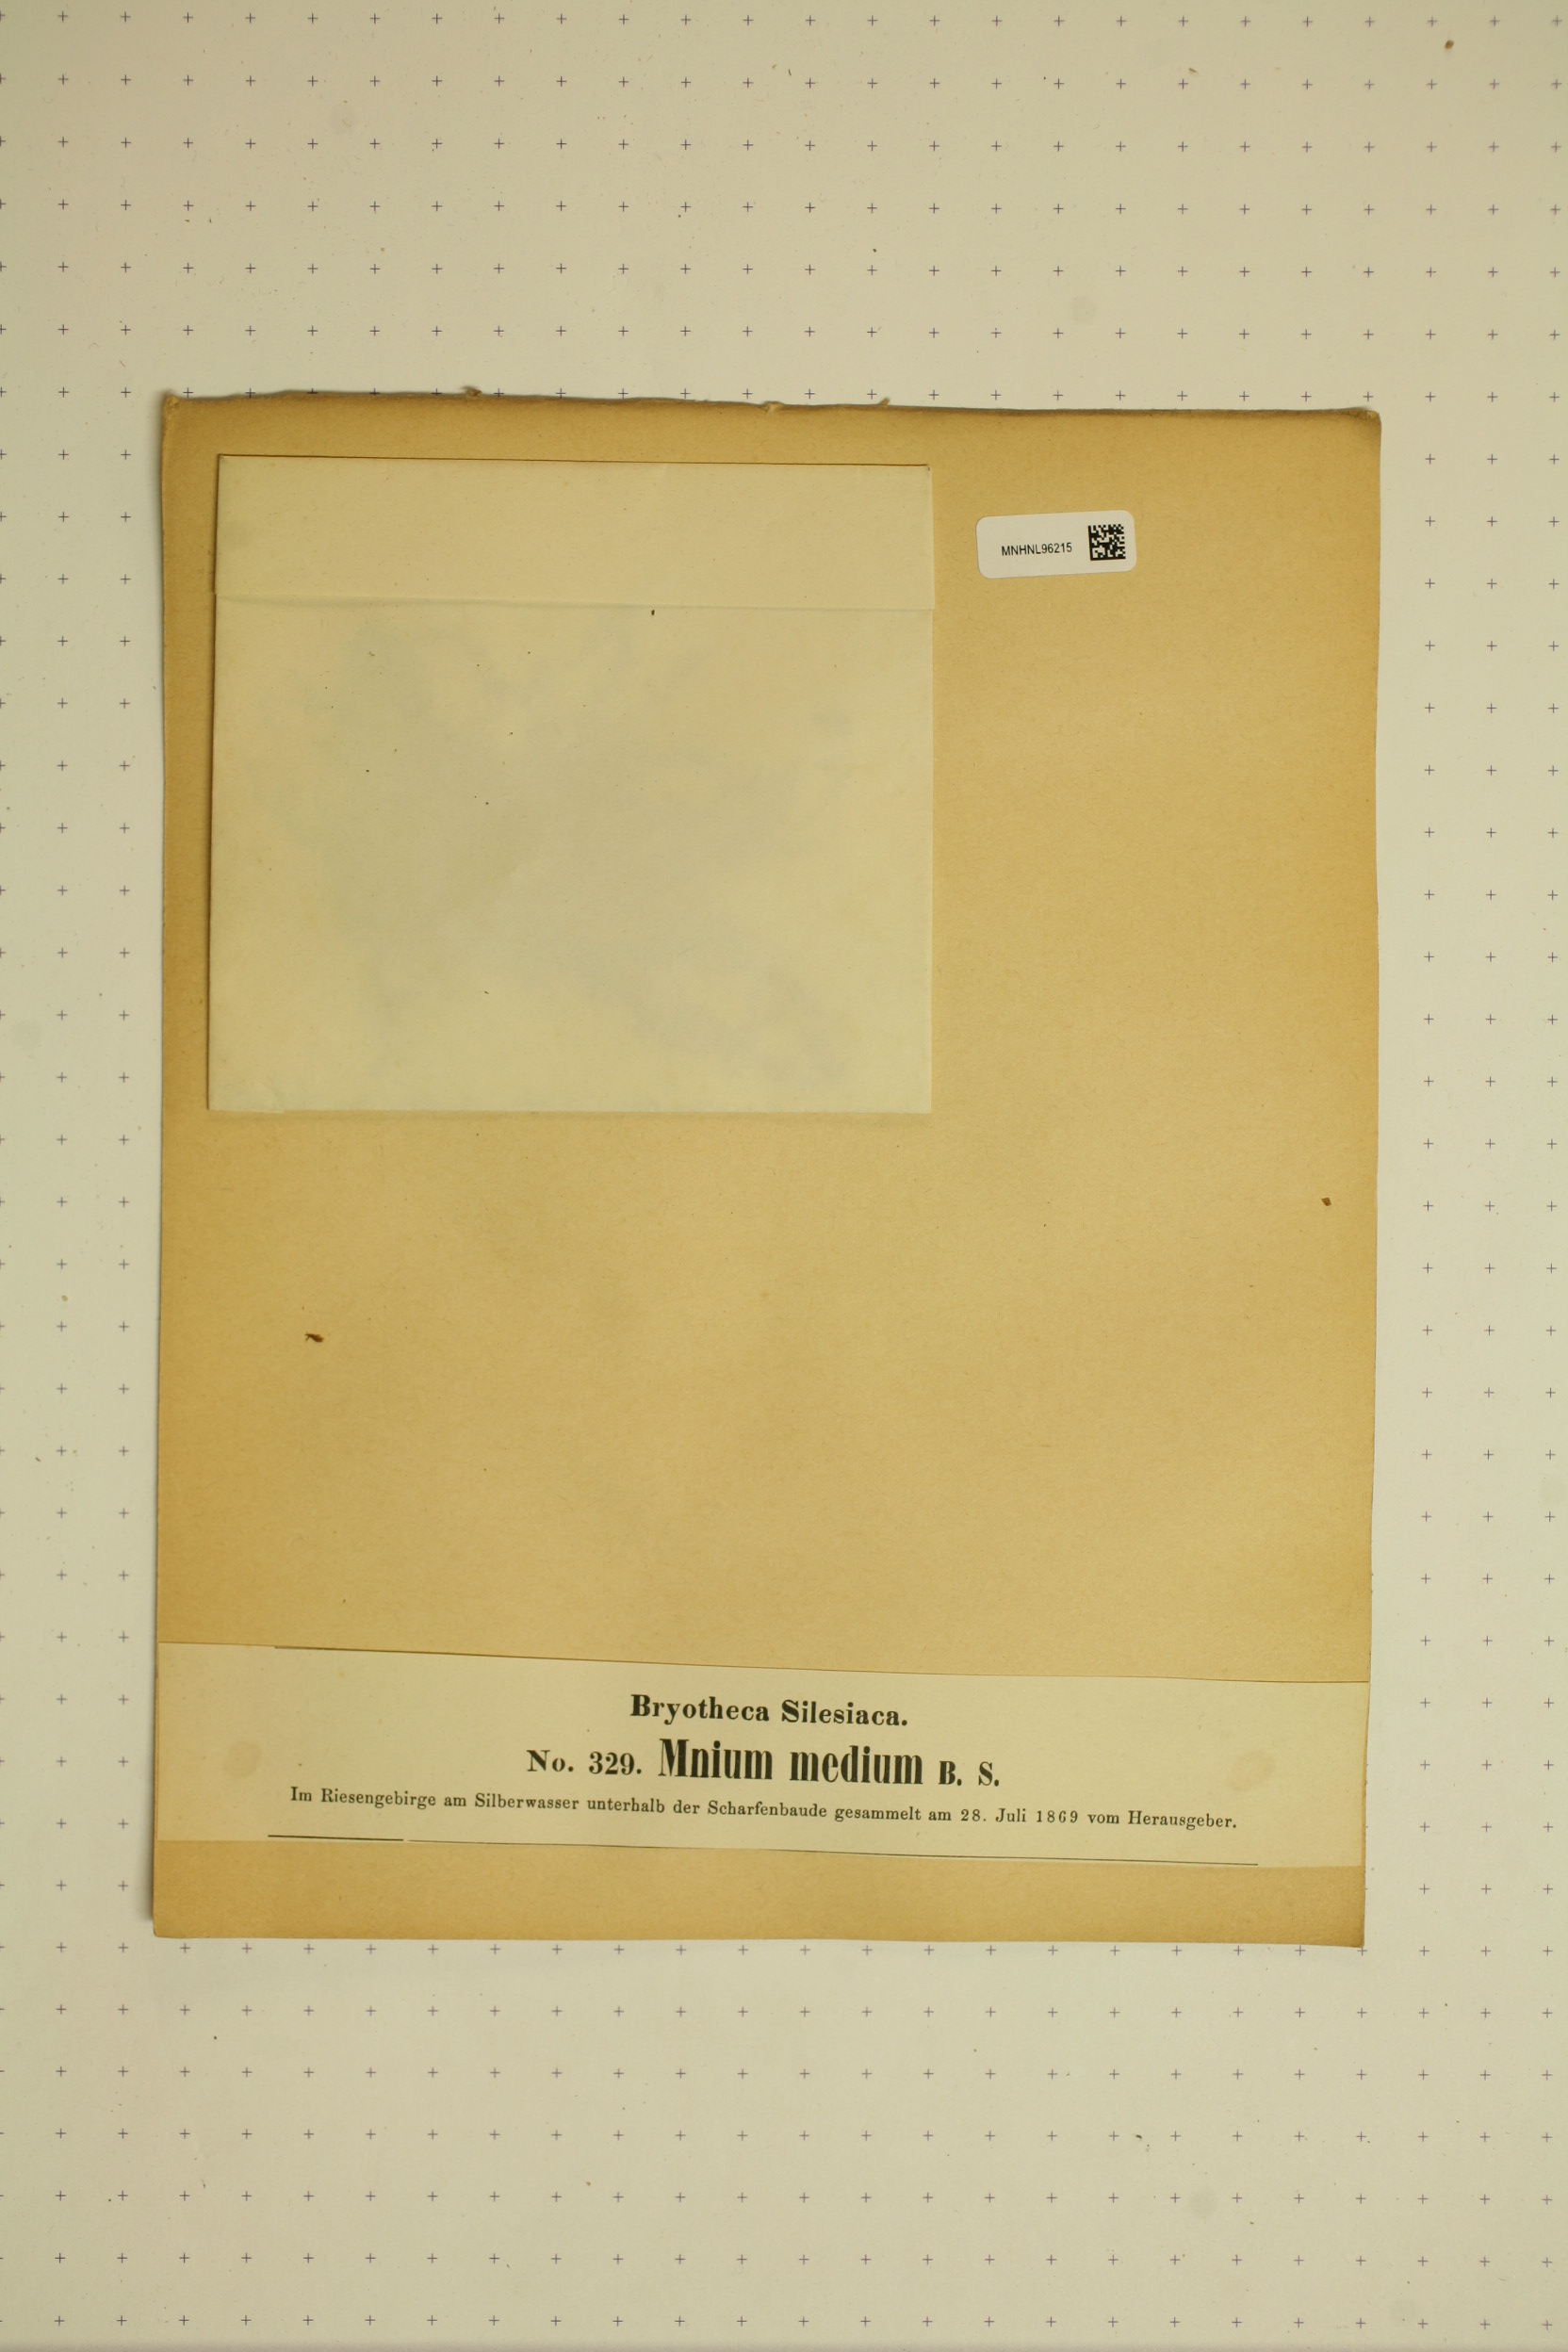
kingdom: Plantae
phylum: Bryophyta
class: Bryopsida
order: Bryales
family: Mniaceae
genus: Plagiomnium
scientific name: Plagiomnium medium
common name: Alpine leafy moss
